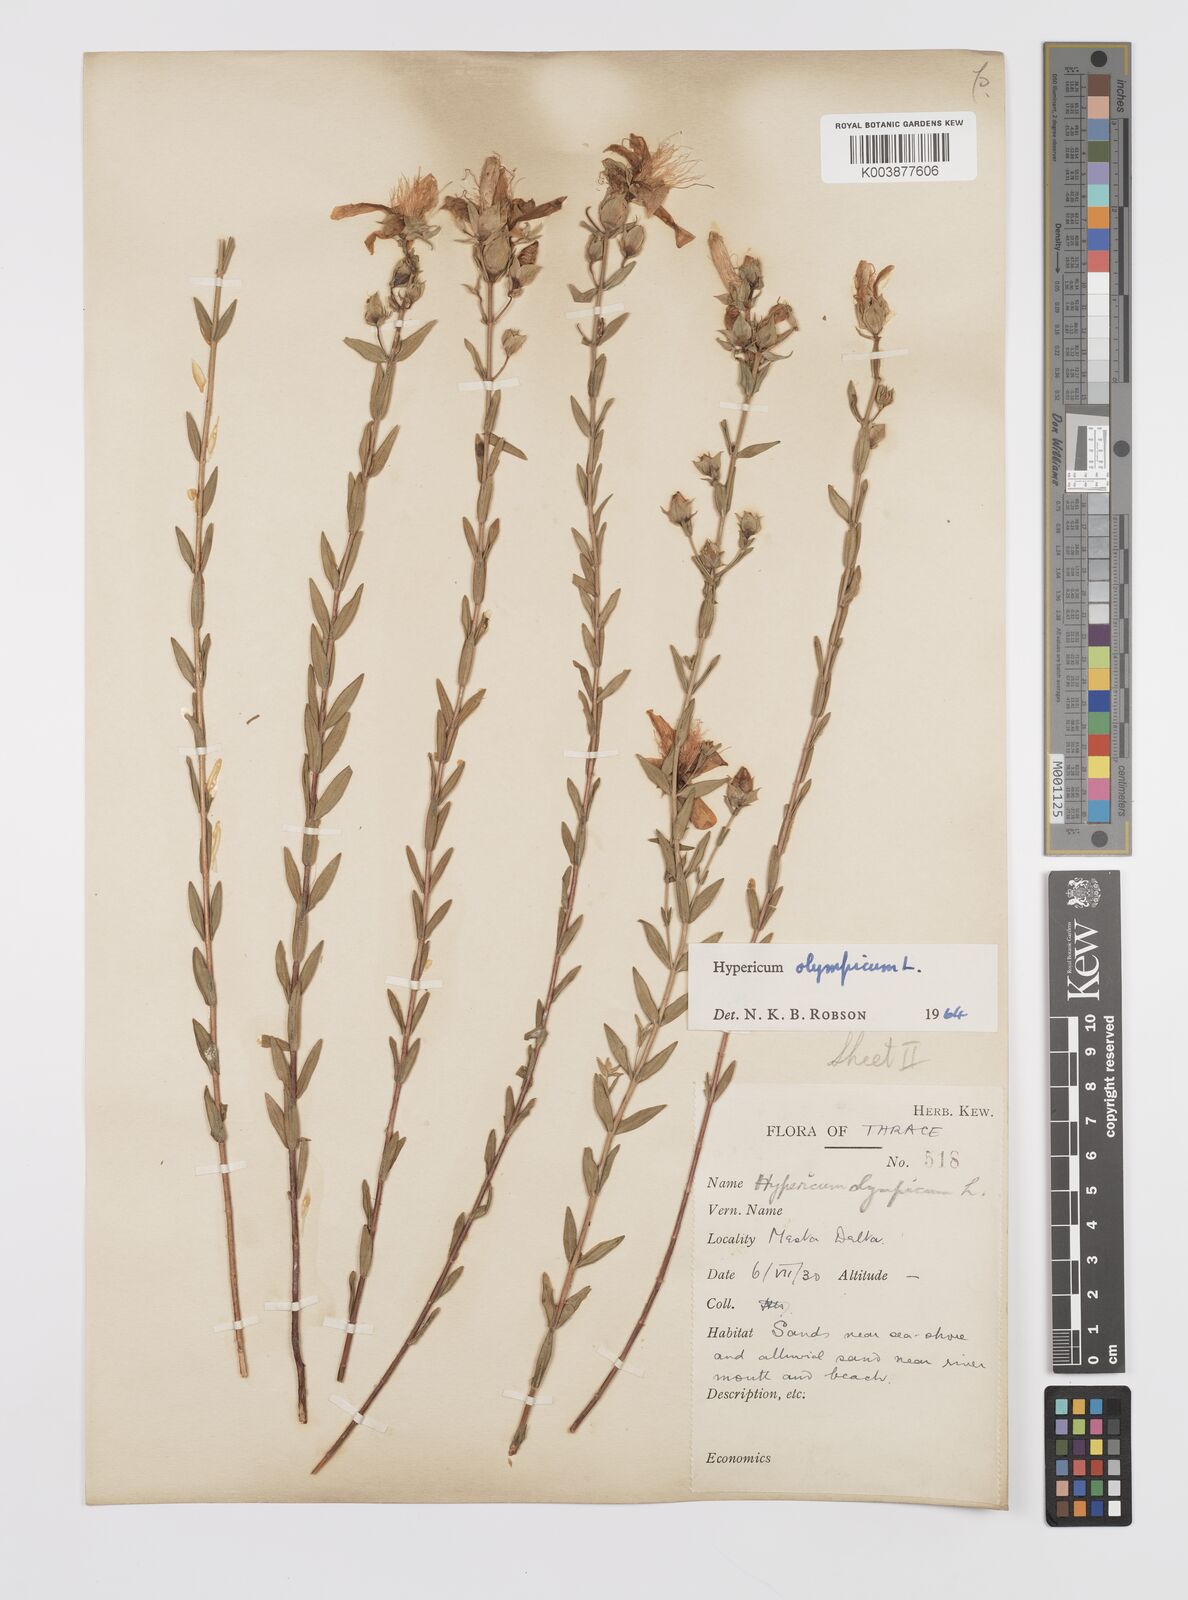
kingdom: Plantae
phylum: Tracheophyta
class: Magnoliopsida
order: Malpighiales
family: Hypericaceae
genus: Hypericum
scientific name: Hypericum olympicum
